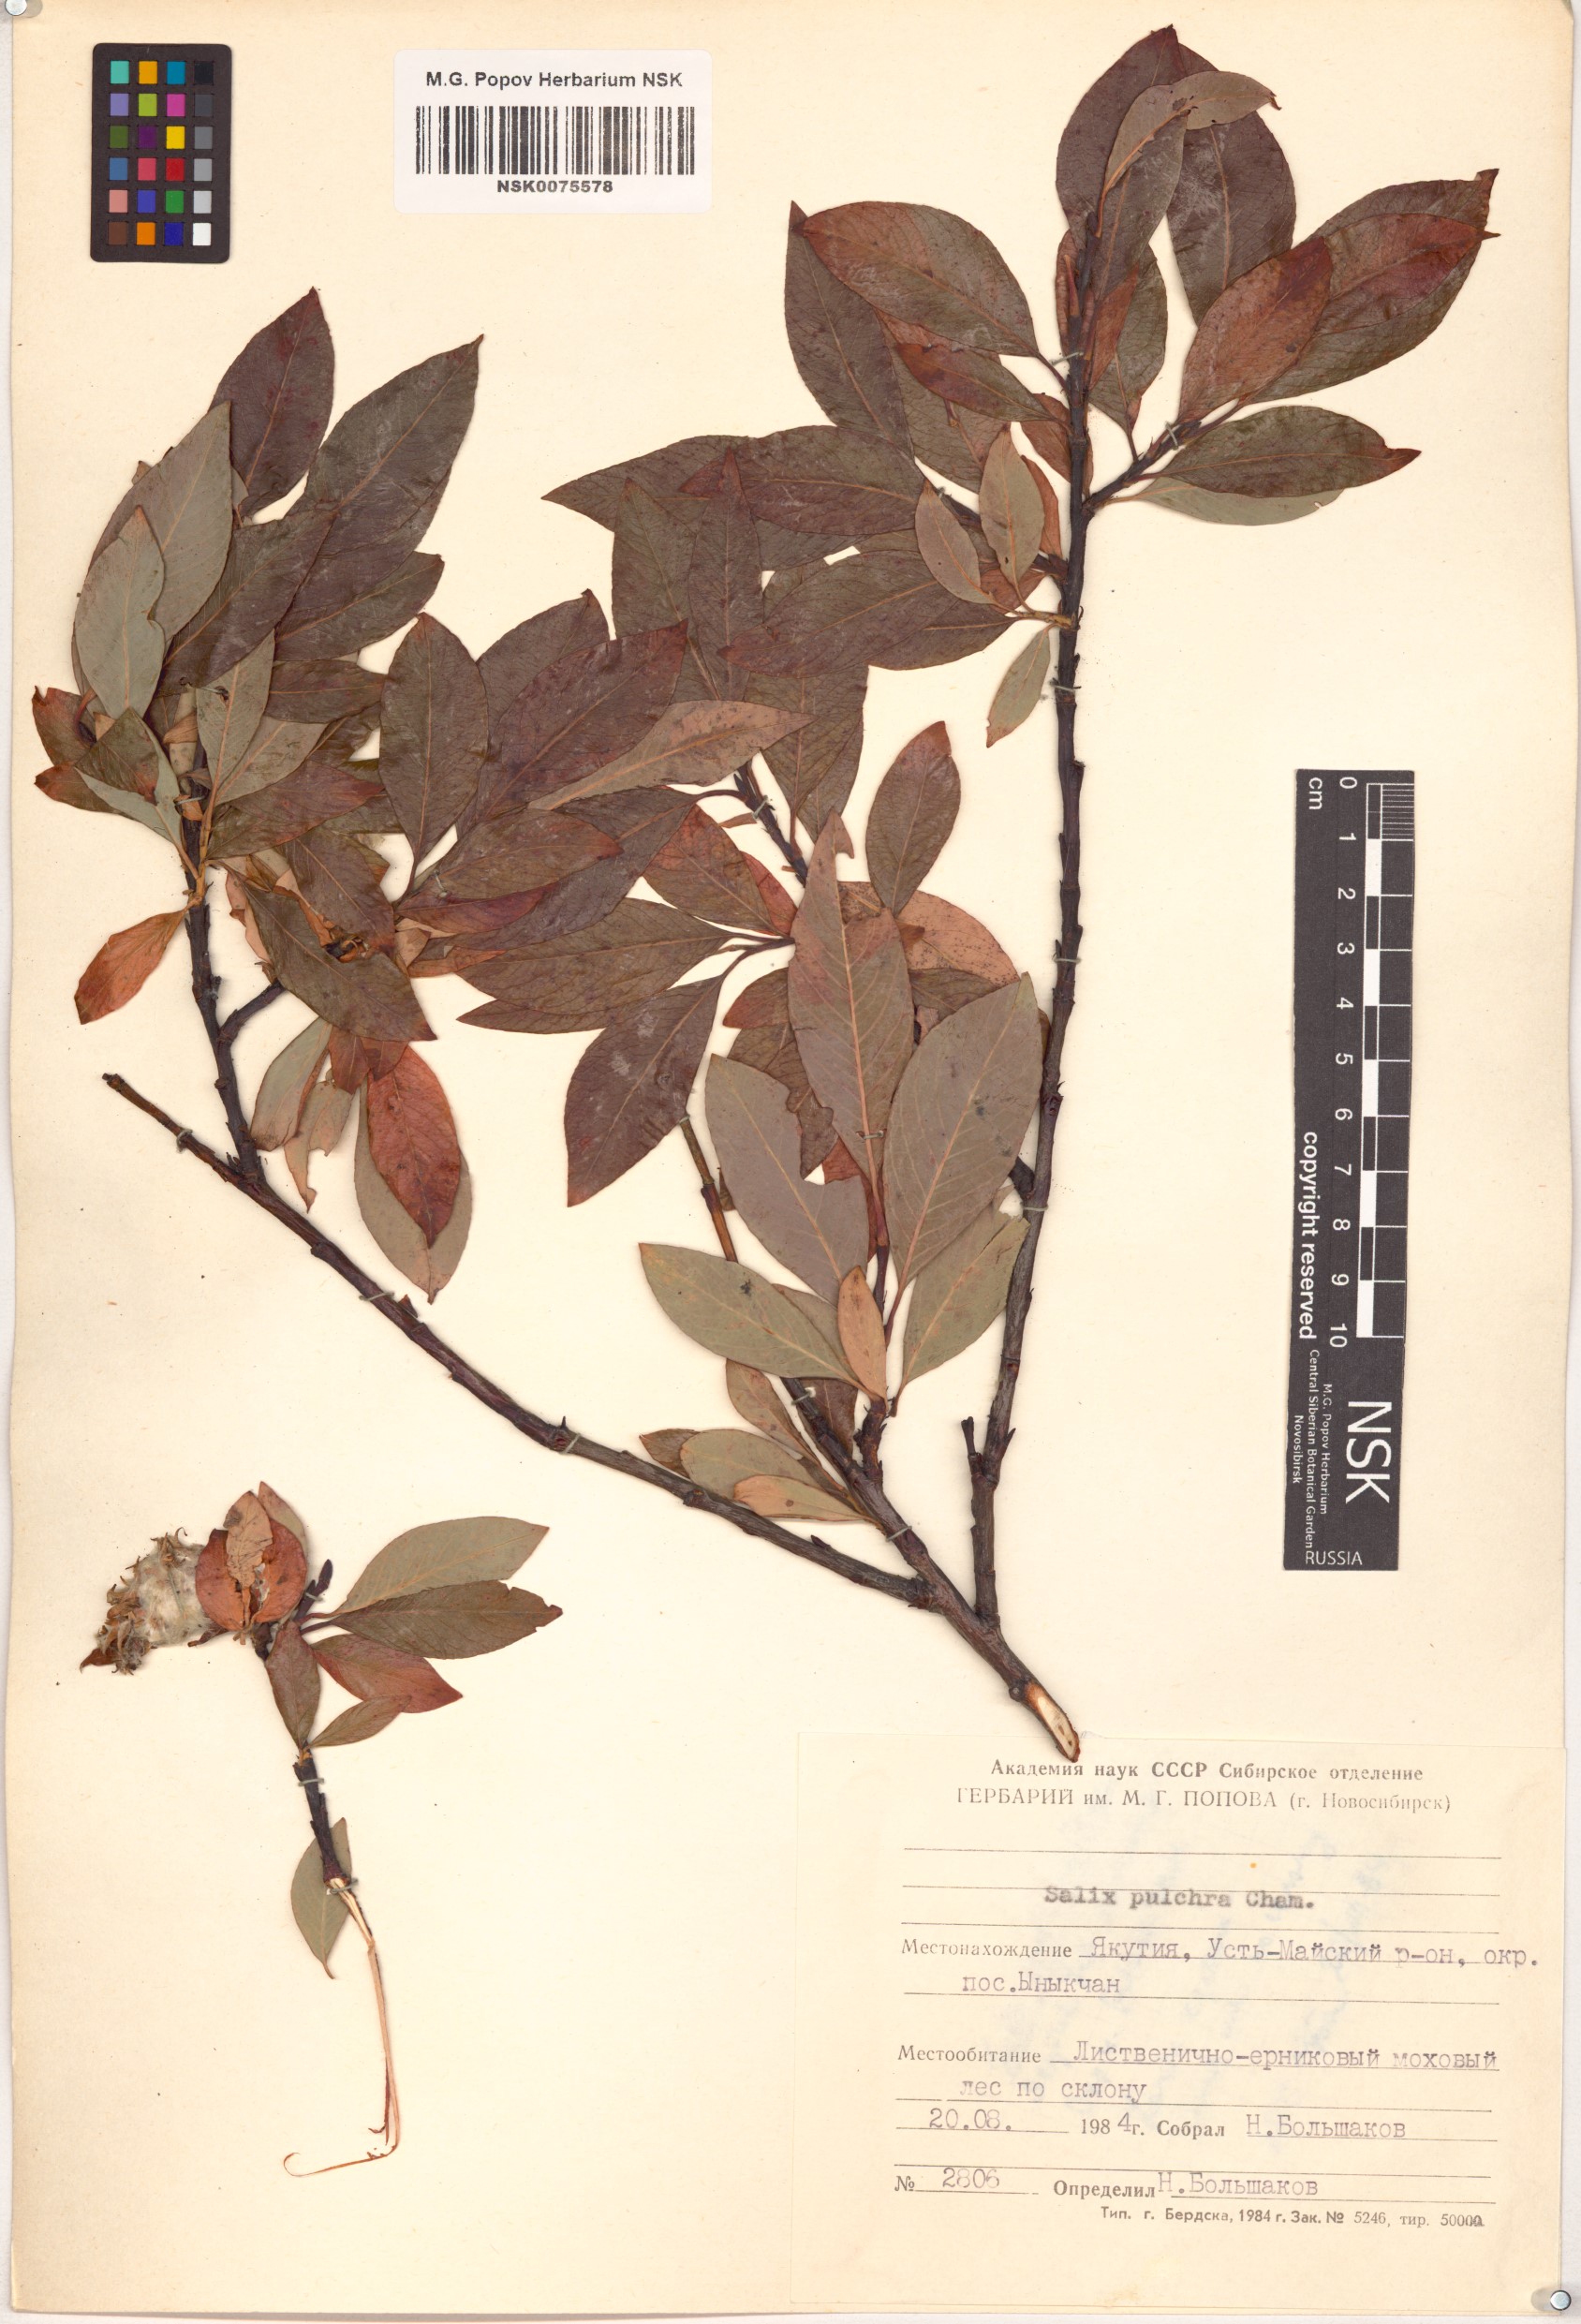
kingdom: Plantae
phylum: Tracheophyta
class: Magnoliopsida
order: Malpighiales
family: Salicaceae
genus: Salix
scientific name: Salix pulchra
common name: Diamond-leaved willow
